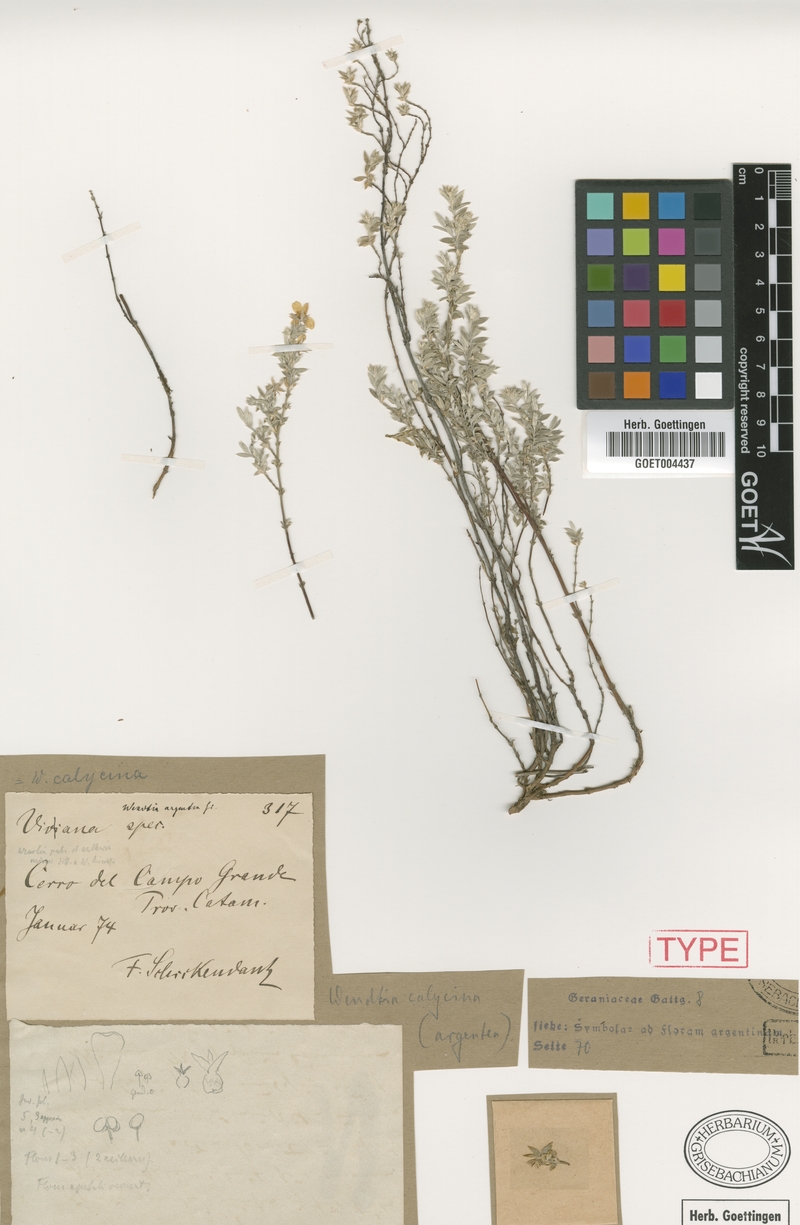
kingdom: Plantae
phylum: Tracheophyta
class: Magnoliopsida
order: Geraniales
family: Vivianiaceae
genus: Wendtia
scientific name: Wendtia calycina
